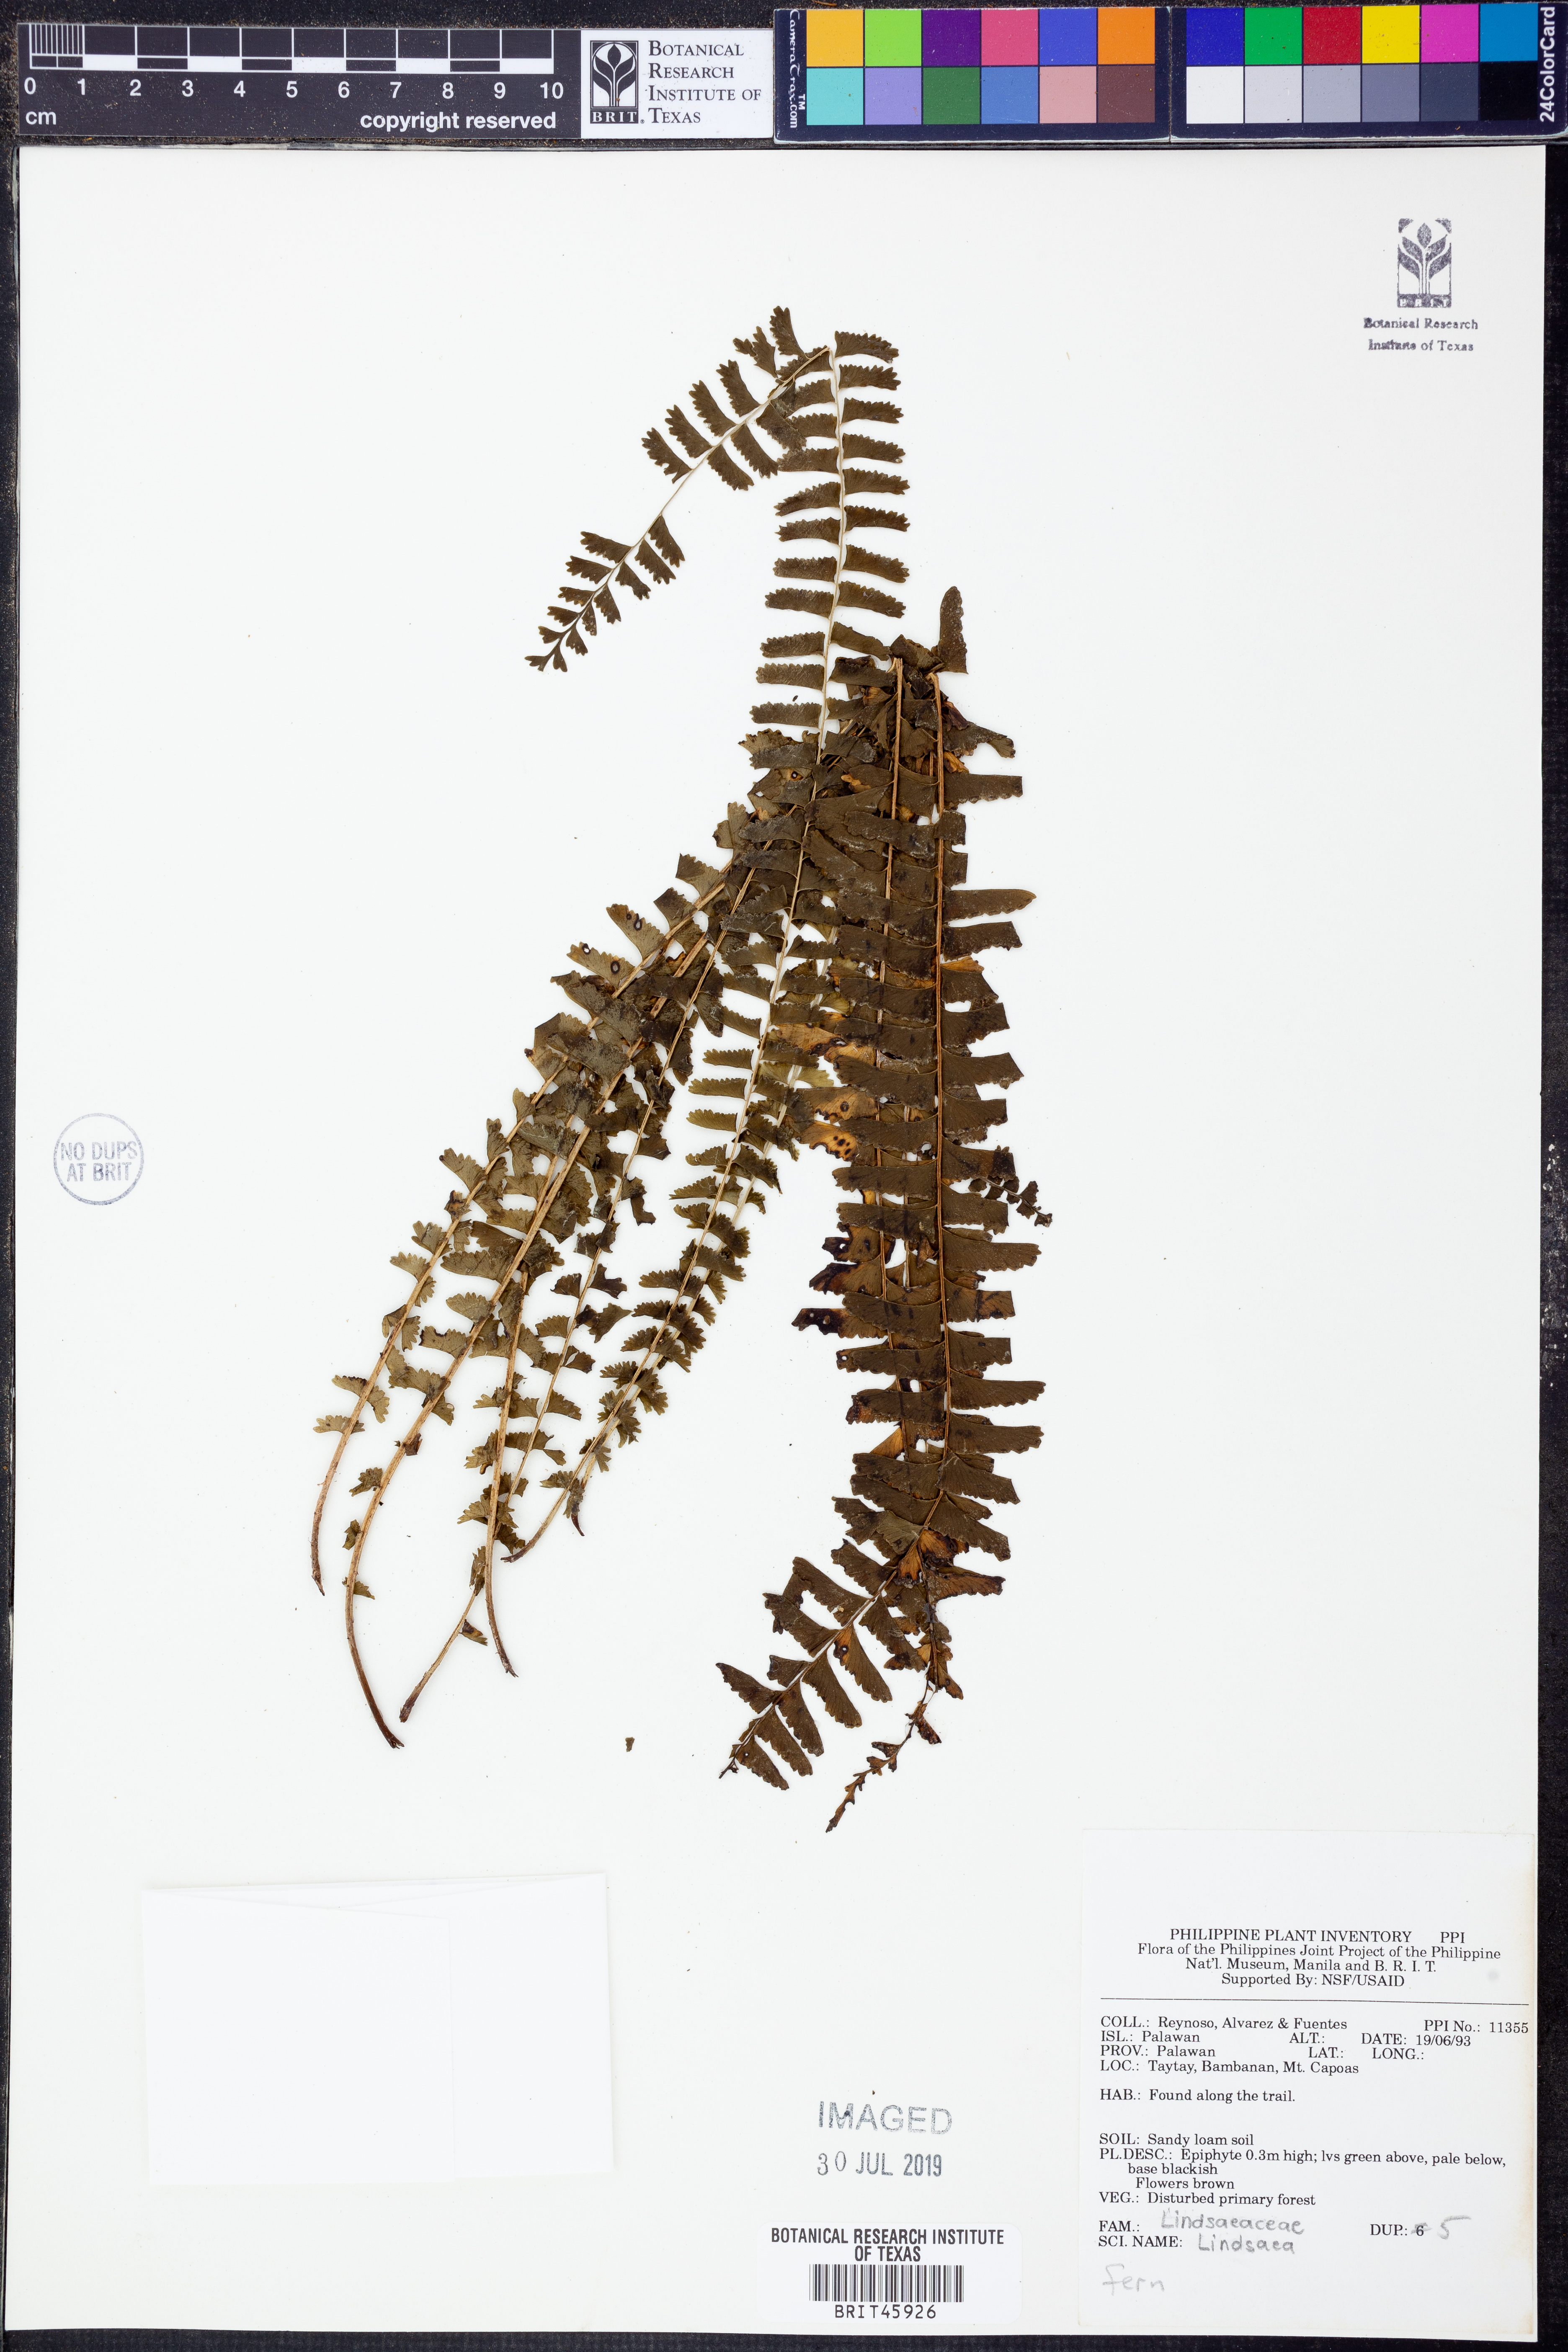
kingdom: Plantae
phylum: Tracheophyta
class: Polypodiopsida
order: Polypodiales
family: Lindsaeaceae
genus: Lindsaea
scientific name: Lindsaea
